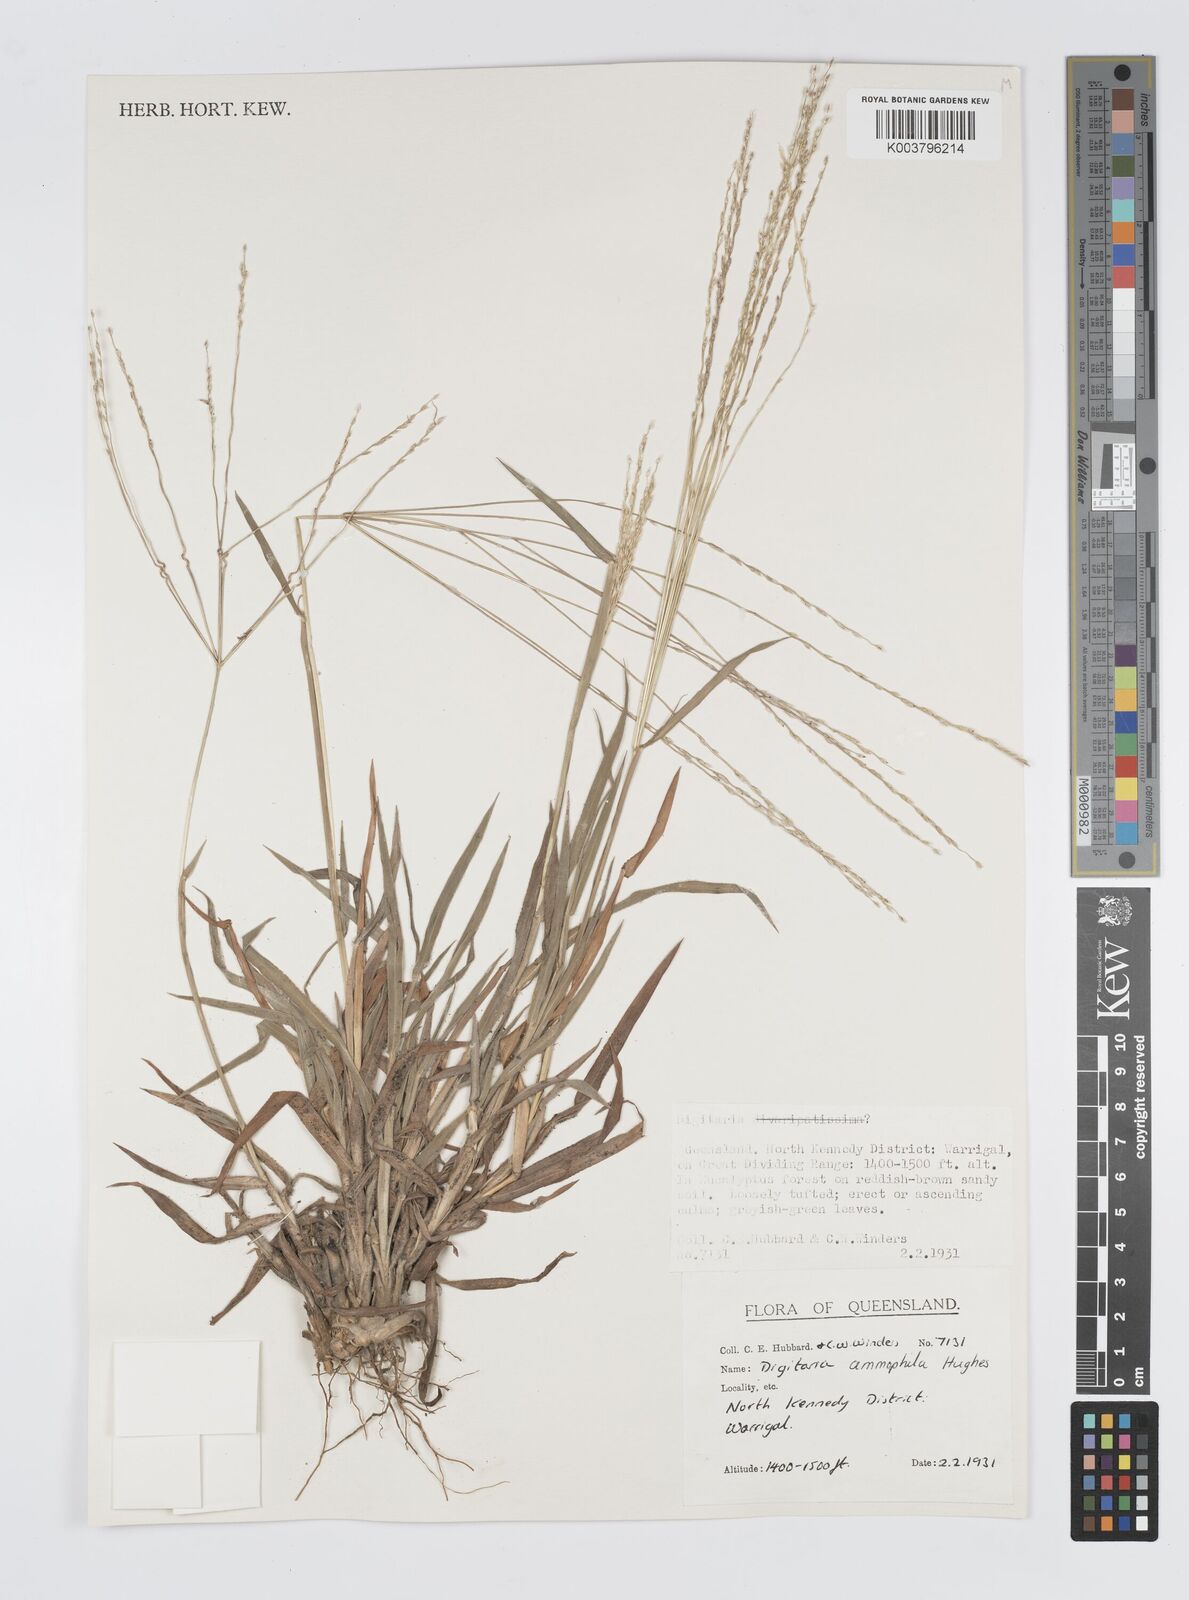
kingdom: Plantae
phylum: Tracheophyta
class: Liliopsida
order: Poales
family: Poaceae
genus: Digitaria
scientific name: Digitaria ammophila
